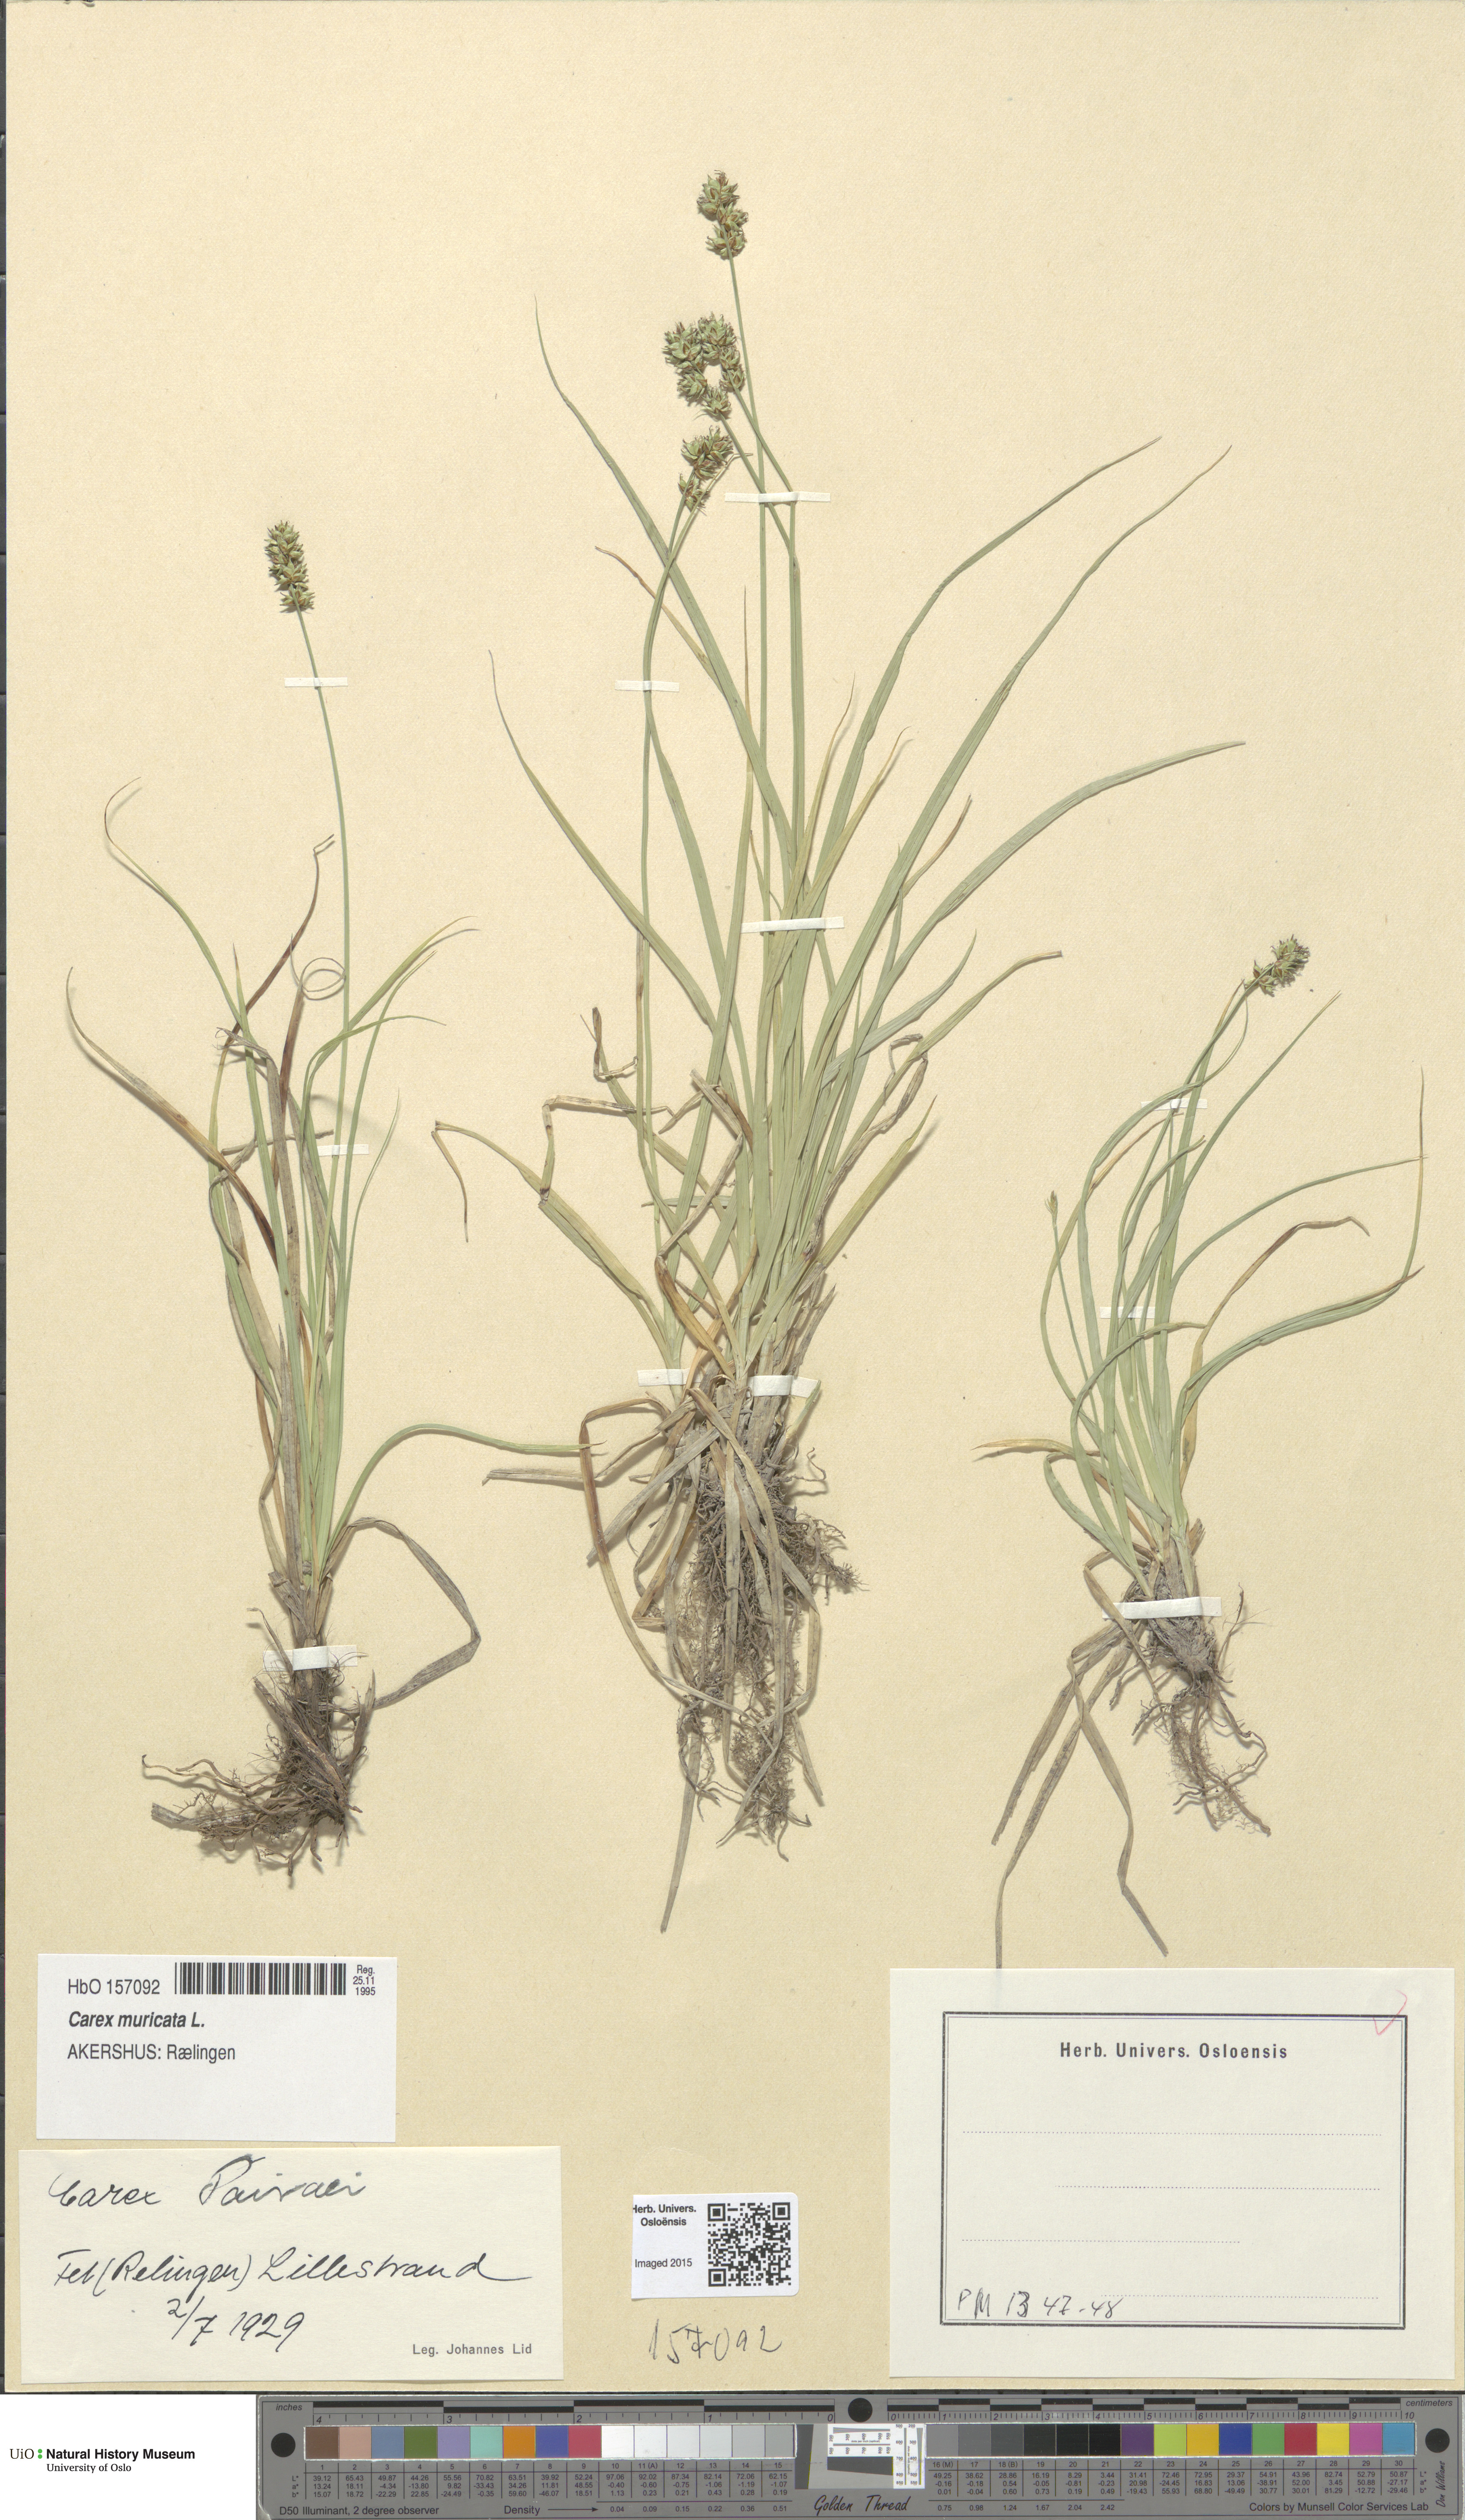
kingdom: Plantae
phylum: Tracheophyta
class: Liliopsida
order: Poales
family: Cyperaceae
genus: Carex
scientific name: Carex pairae
